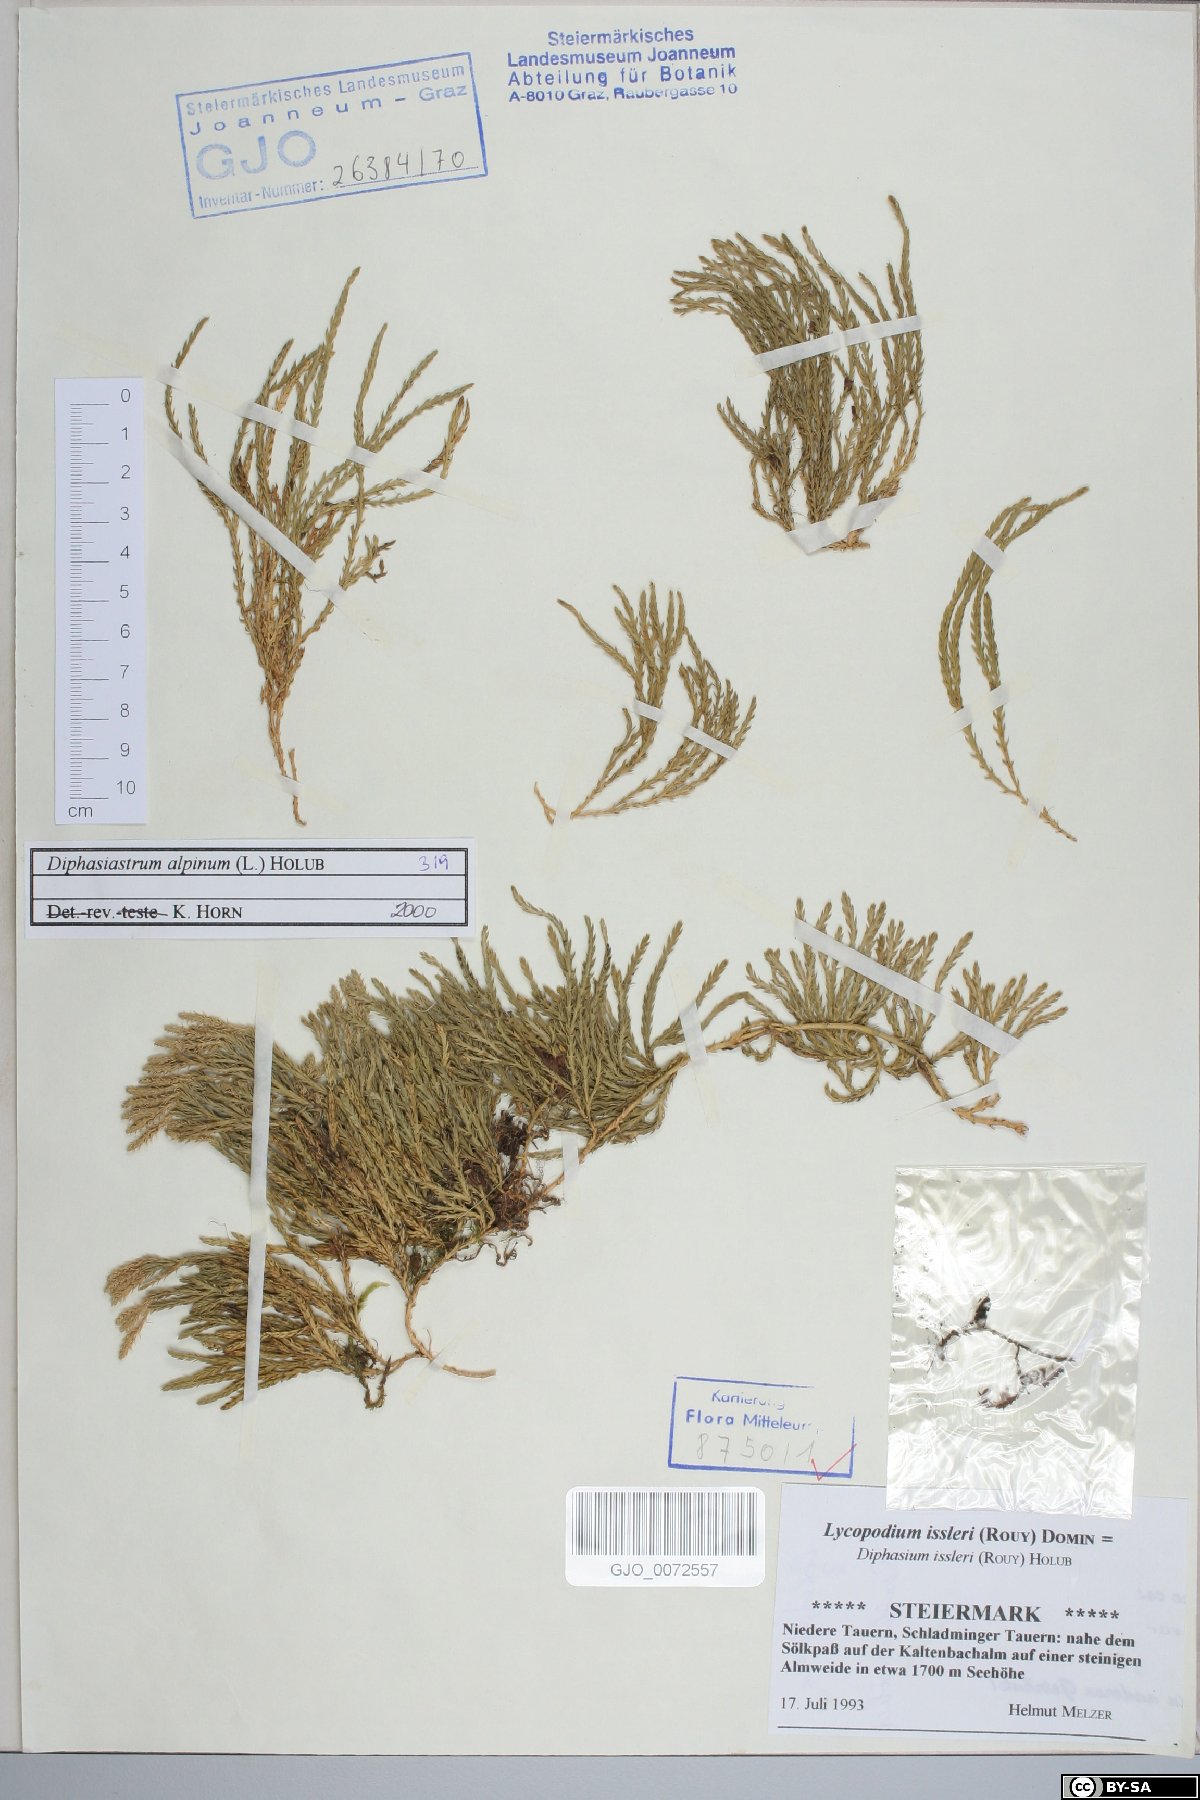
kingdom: Plantae
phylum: Tracheophyta
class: Lycopodiopsida
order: Lycopodiales
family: Lycopodiaceae
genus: Diphasiastrum
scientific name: Diphasiastrum alpinum
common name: Alpine clubmoss
